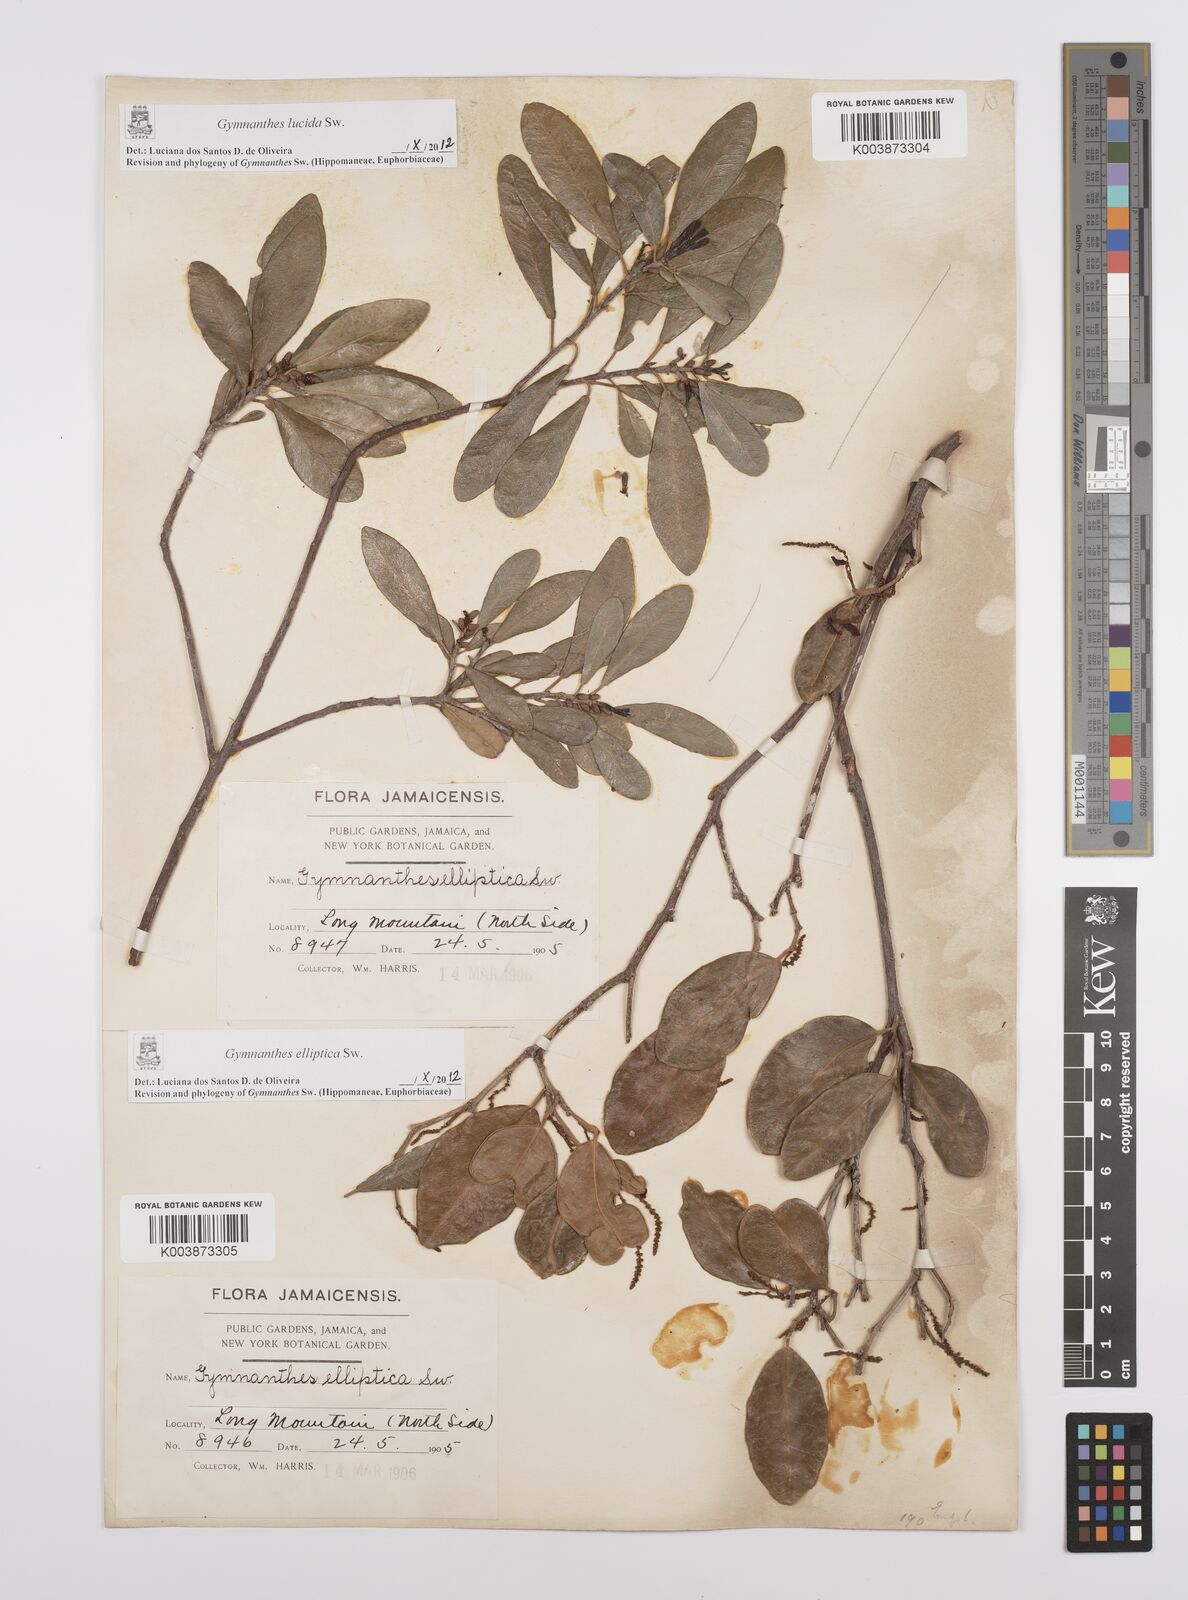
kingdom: Plantae
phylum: Tracheophyta
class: Magnoliopsida
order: Malpighiales
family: Euphorbiaceae
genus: Dendrocousinsia
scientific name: Dendrocousinsia elliptica
